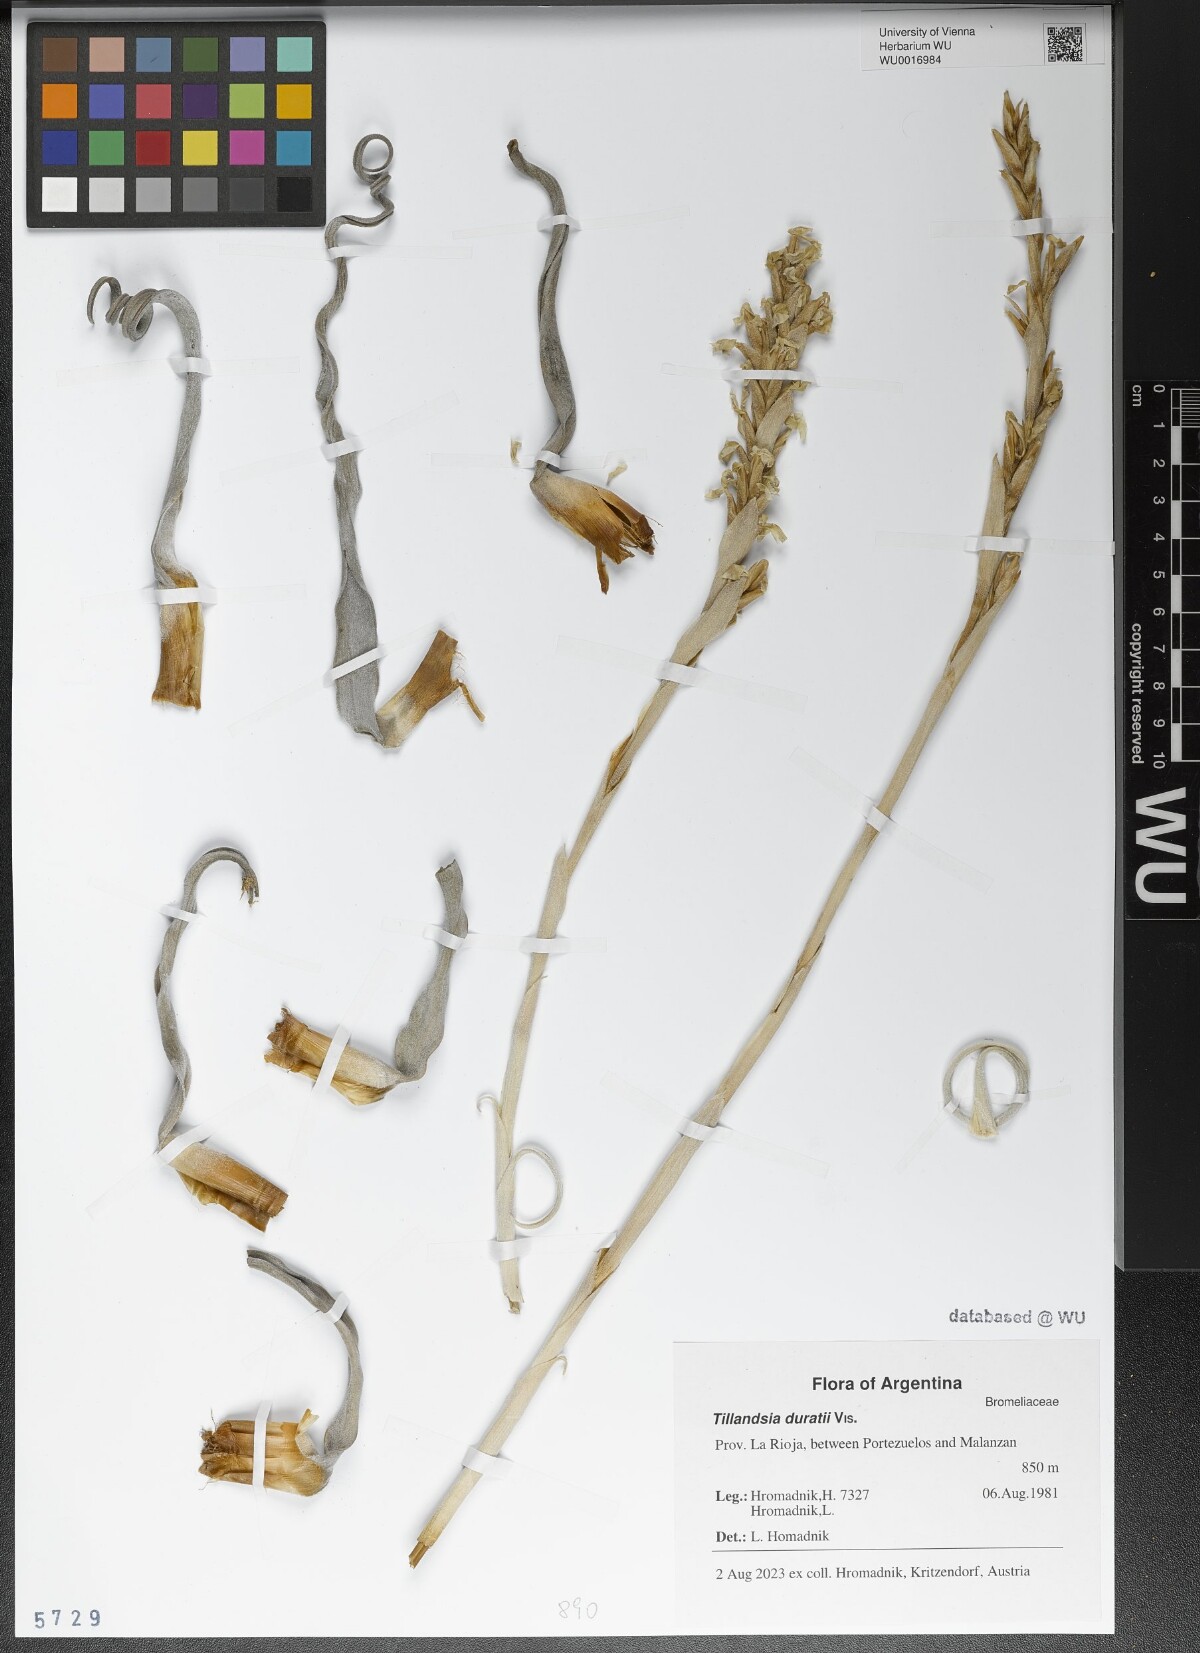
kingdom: Plantae
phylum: Tracheophyta
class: Liliopsida
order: Poales
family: Bromeliaceae
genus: Tillandsia
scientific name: Tillandsia duratii
